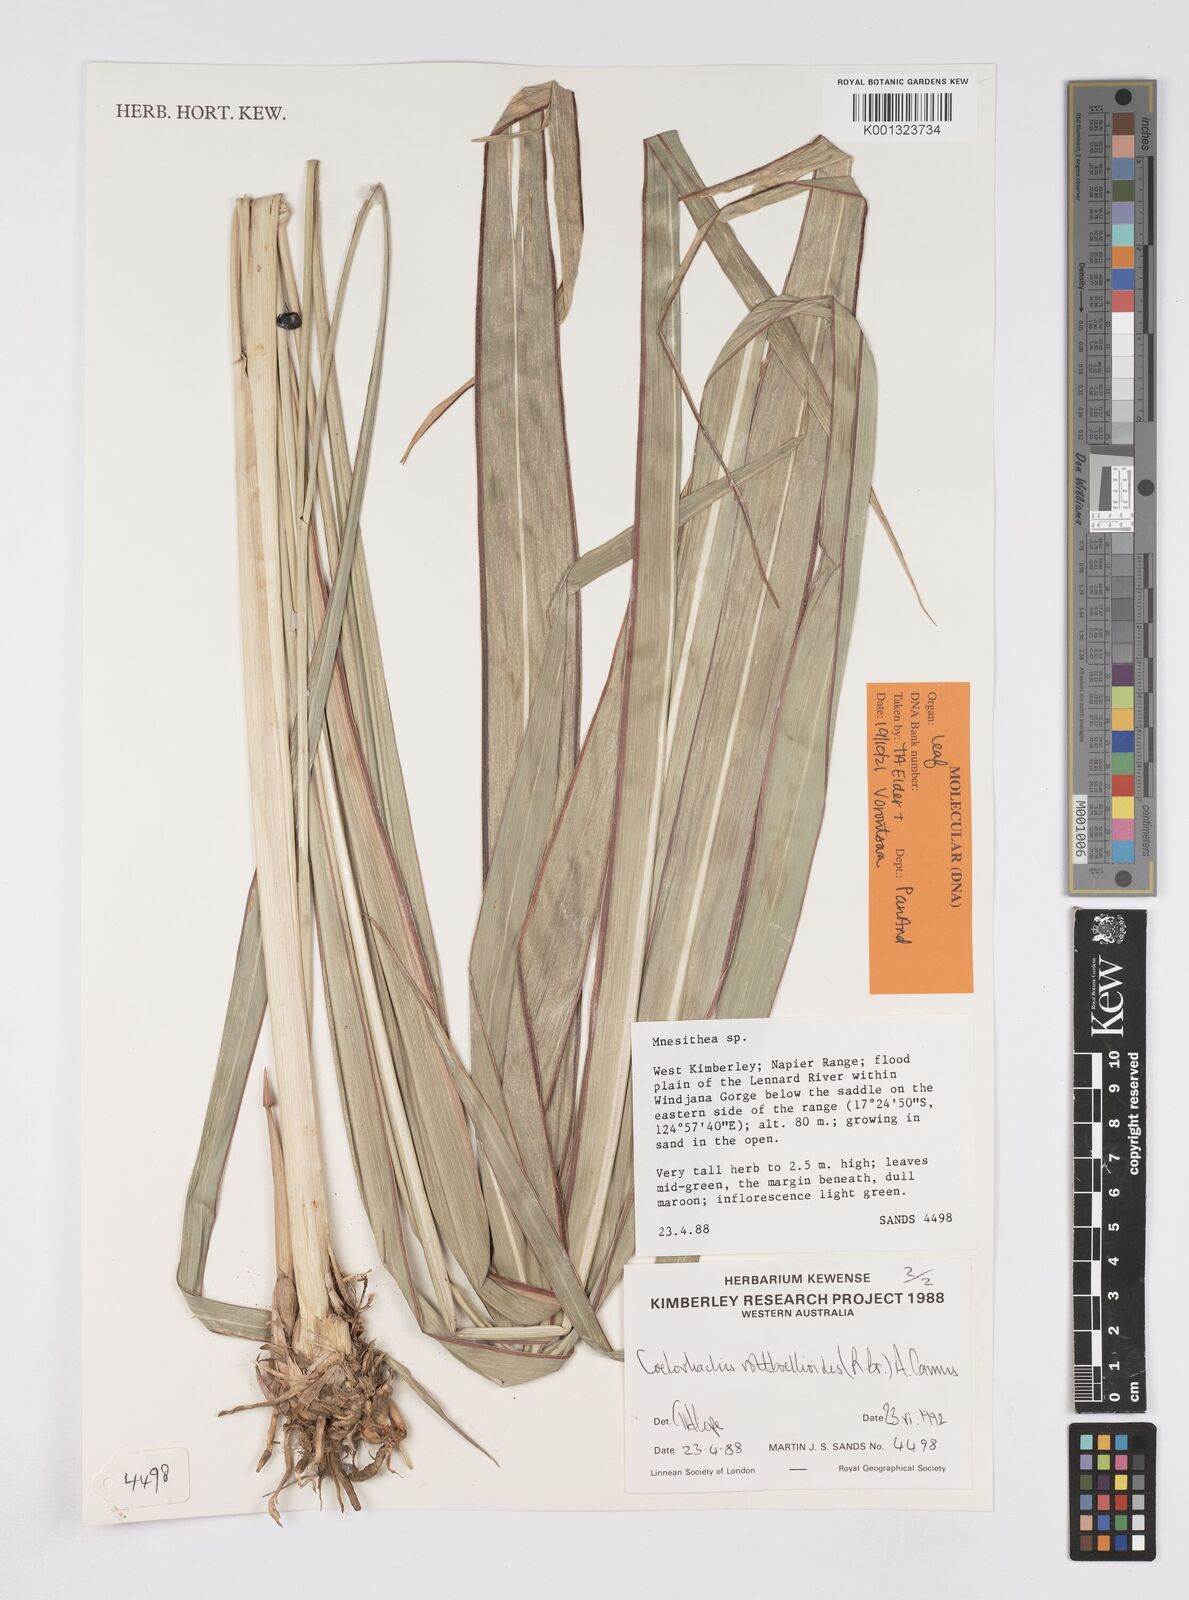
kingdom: Plantae
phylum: Tracheophyta
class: Liliopsida
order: Poales
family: Poaceae
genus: Rottboellia
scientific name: Rottboellia rottboellioides
